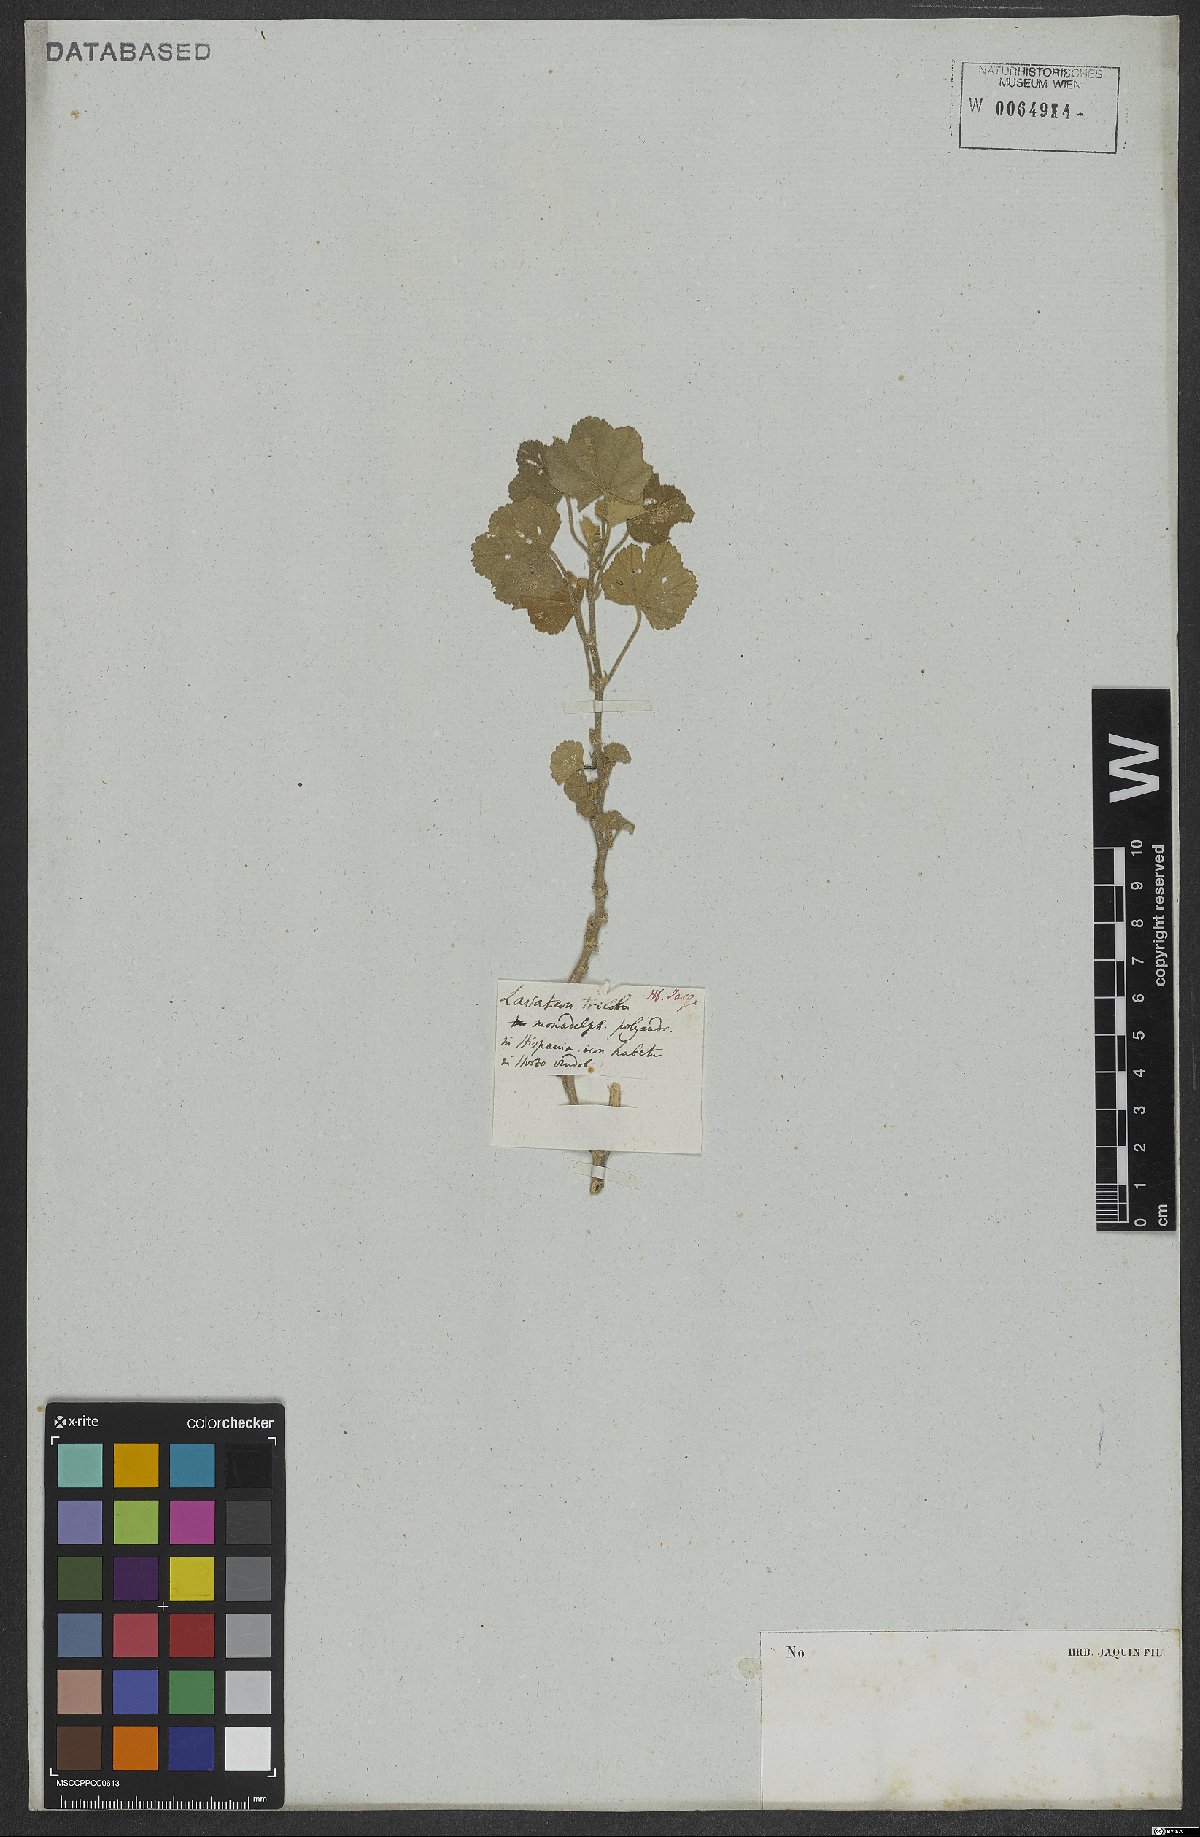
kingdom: Plantae
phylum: Tracheophyta
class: Magnoliopsida
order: Malvales
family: Malvaceae
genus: Malva
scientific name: Malva thuringiaca
